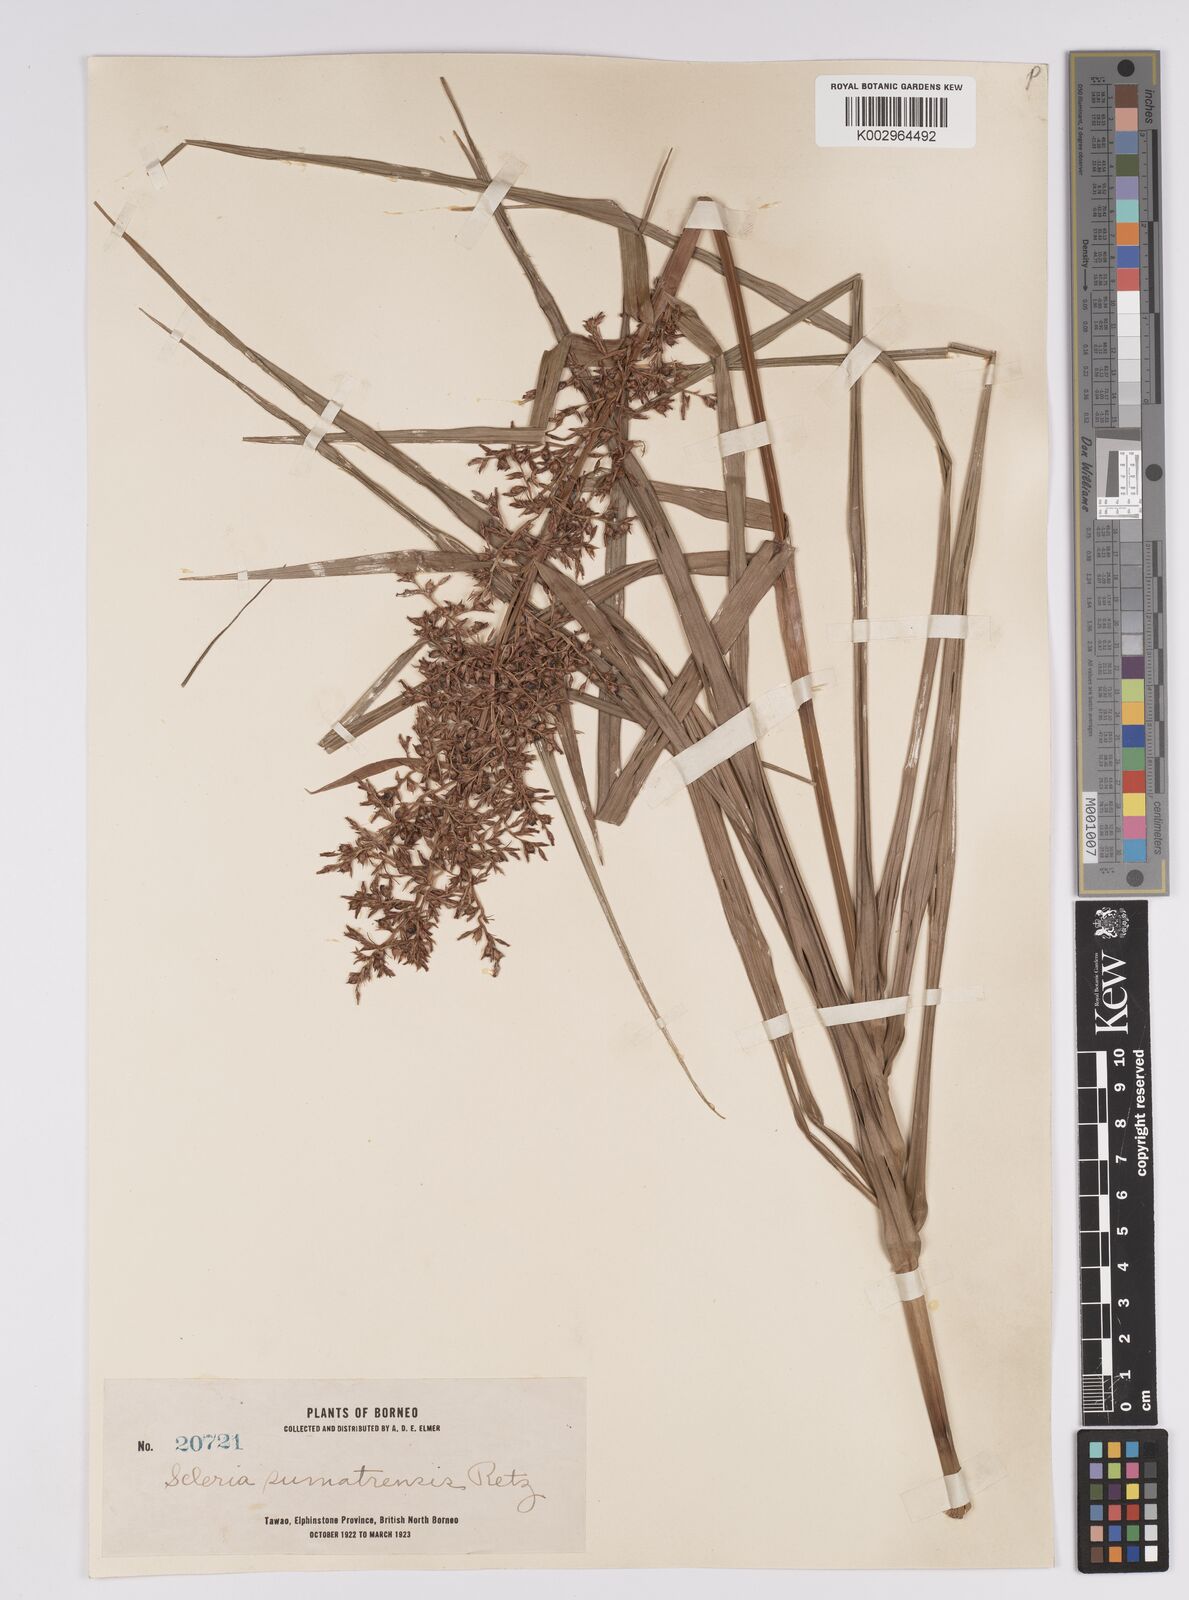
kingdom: Plantae
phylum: Tracheophyta
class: Liliopsida
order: Poales
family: Cyperaceae
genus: Scleria
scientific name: Scleria sumatrensis
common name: Sumatran scleria
